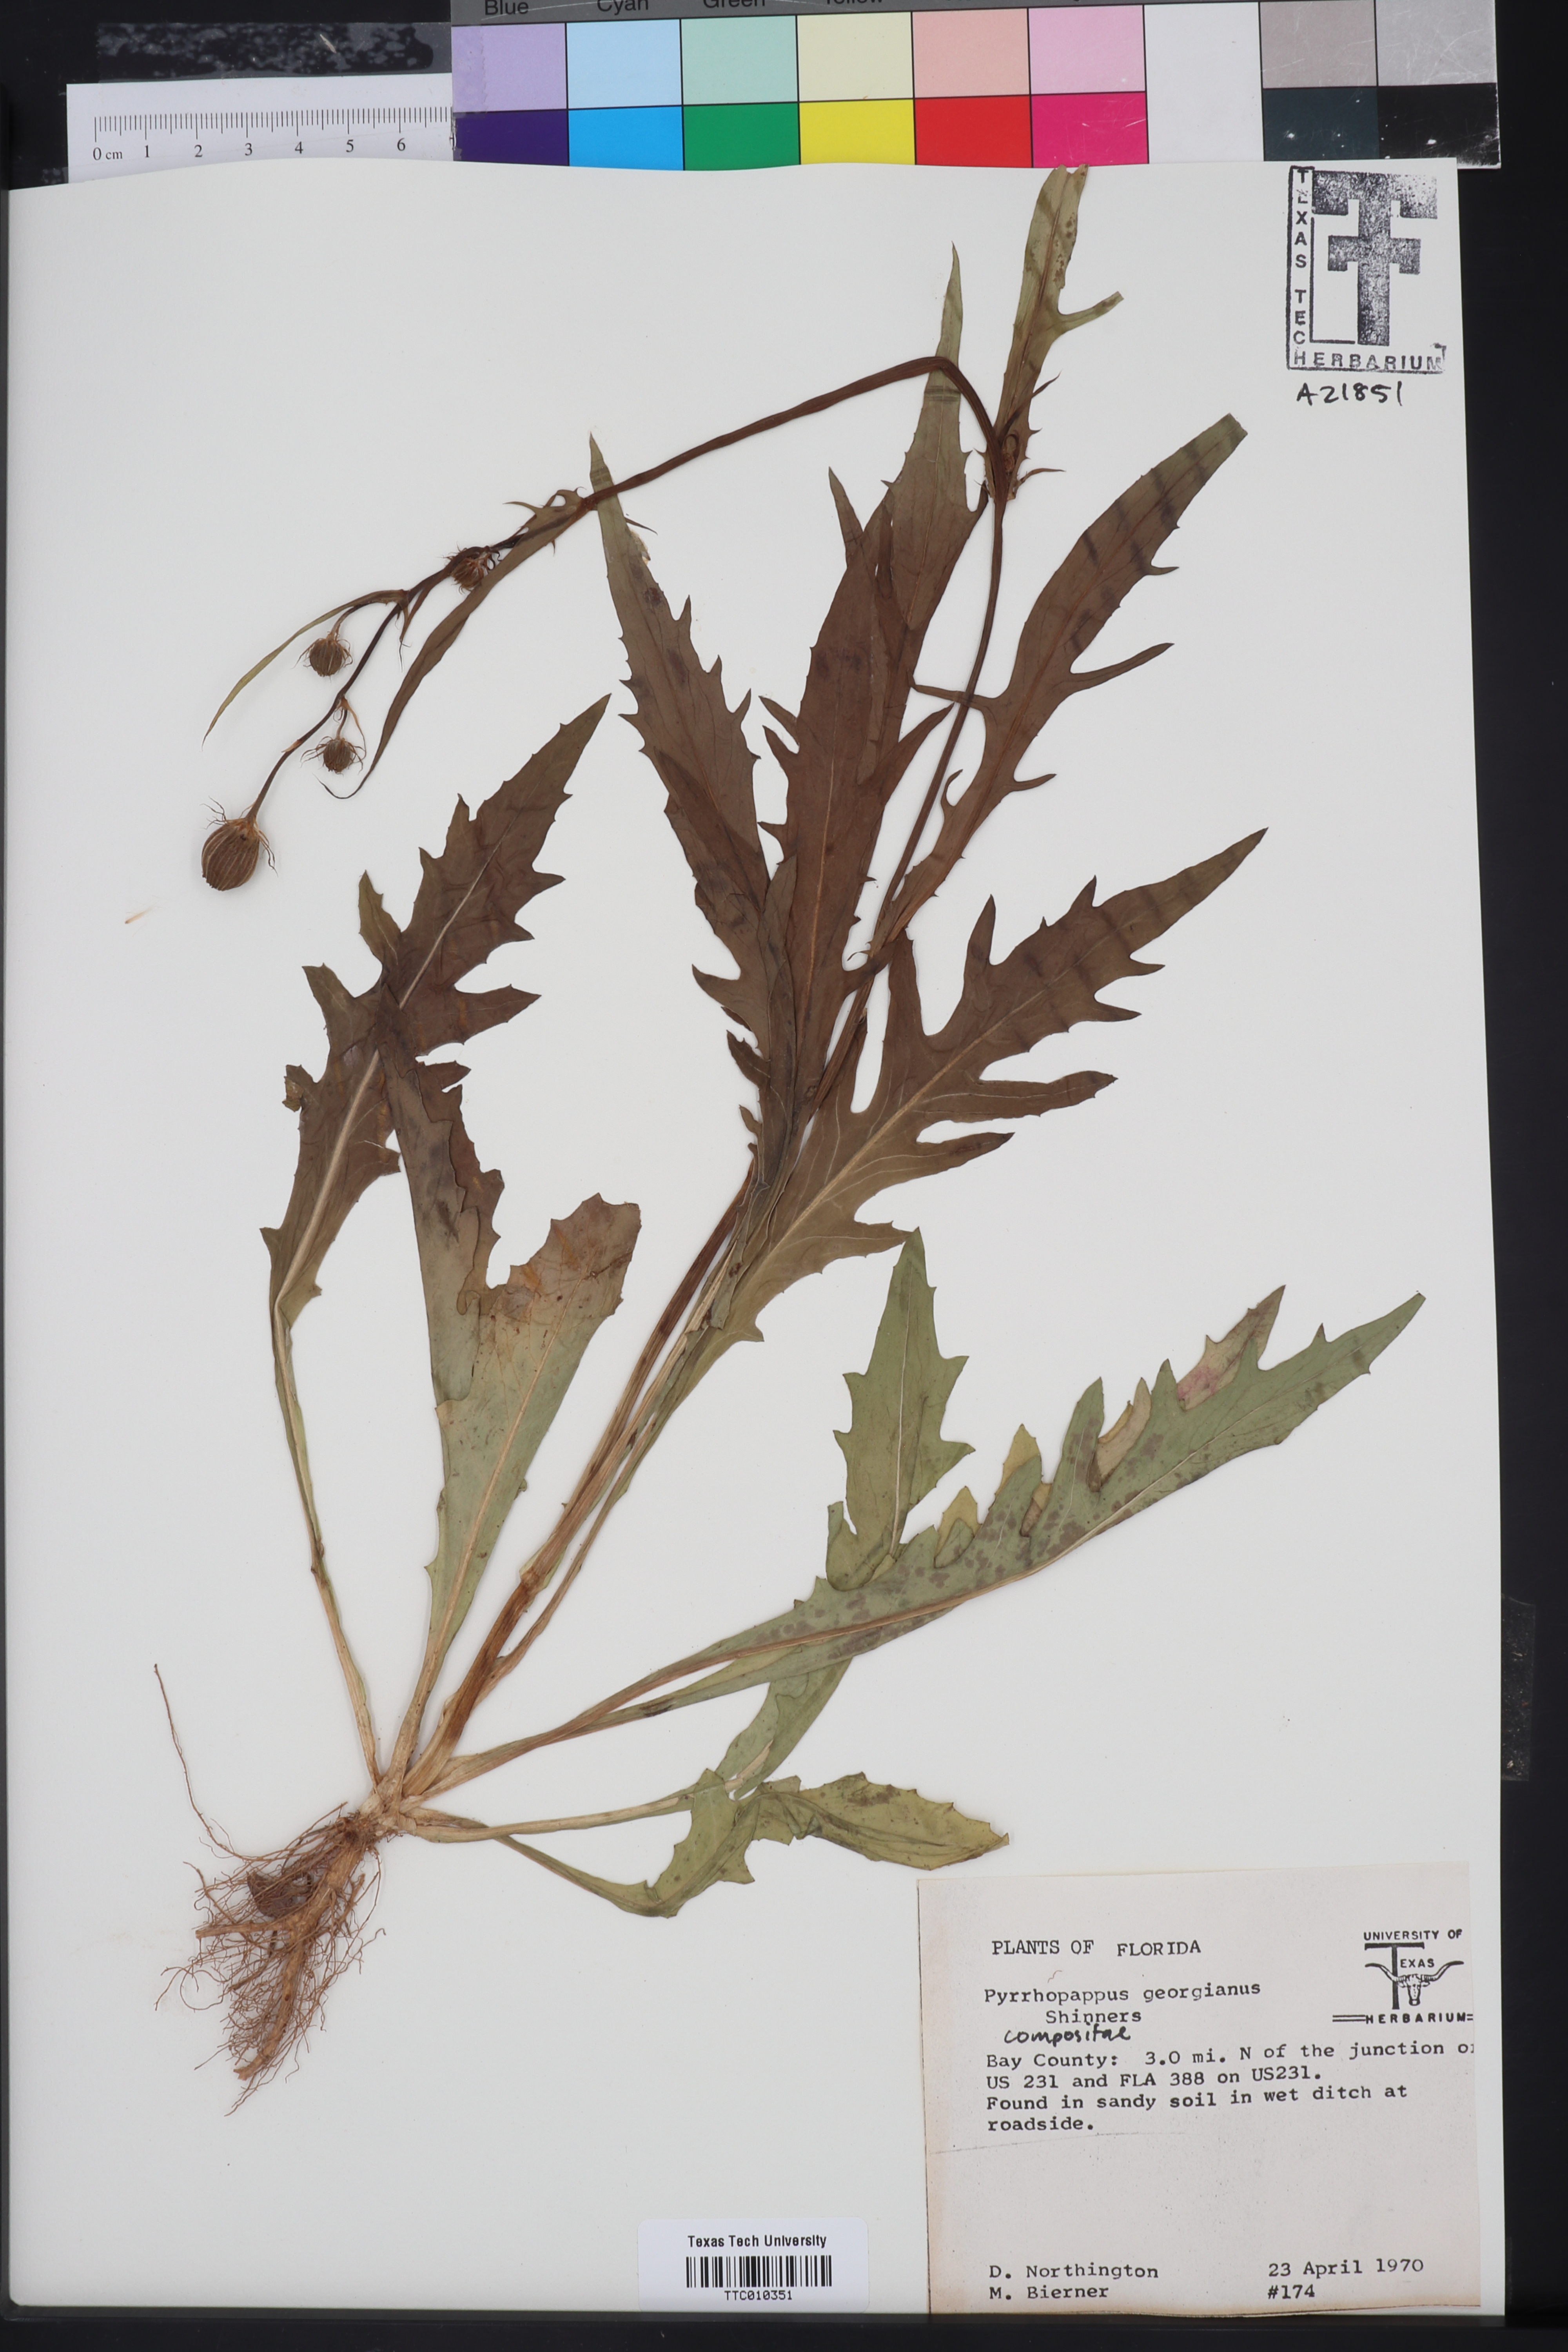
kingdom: Plantae
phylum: Tracheophyta
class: Magnoliopsida
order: Asterales
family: Asteraceae
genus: Pyrrhopappus
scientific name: Pyrrhopappus carolinianus
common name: Carolina desert-chicory
